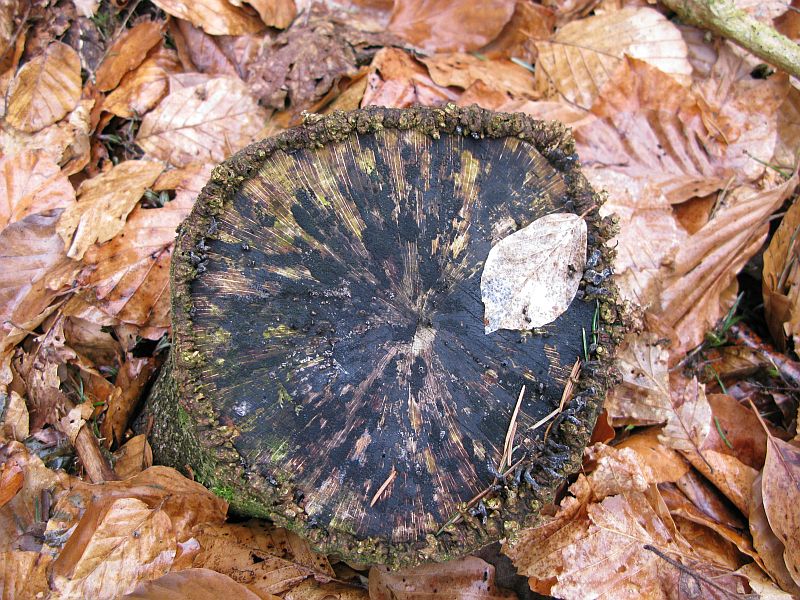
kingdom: Fungi
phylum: Ascomycota
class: Leotiomycetes
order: Helotiales
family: Helotiaceae
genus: Bispora
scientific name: Bispora pallescens
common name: måtte-snitskive
